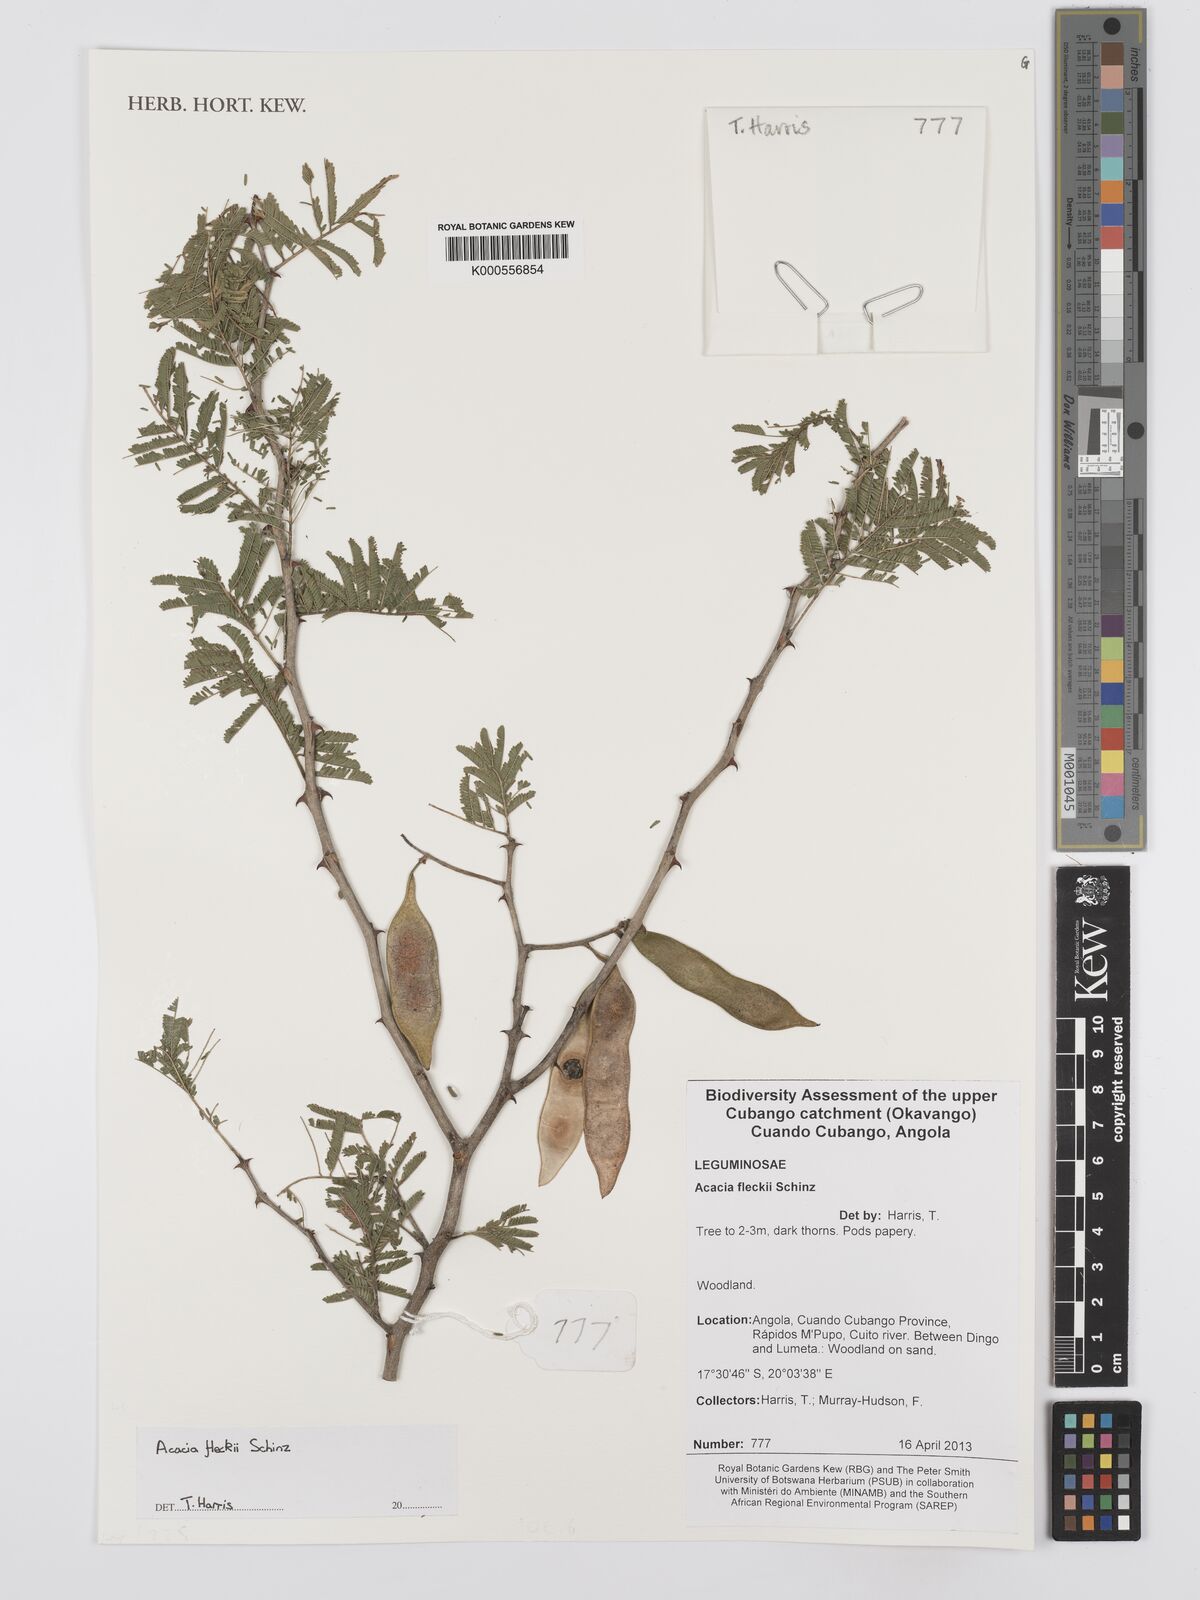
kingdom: Plantae
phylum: Tracheophyta
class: Magnoliopsida
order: Fabales
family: Fabaceae
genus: Senegalia
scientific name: Senegalia fleckii
